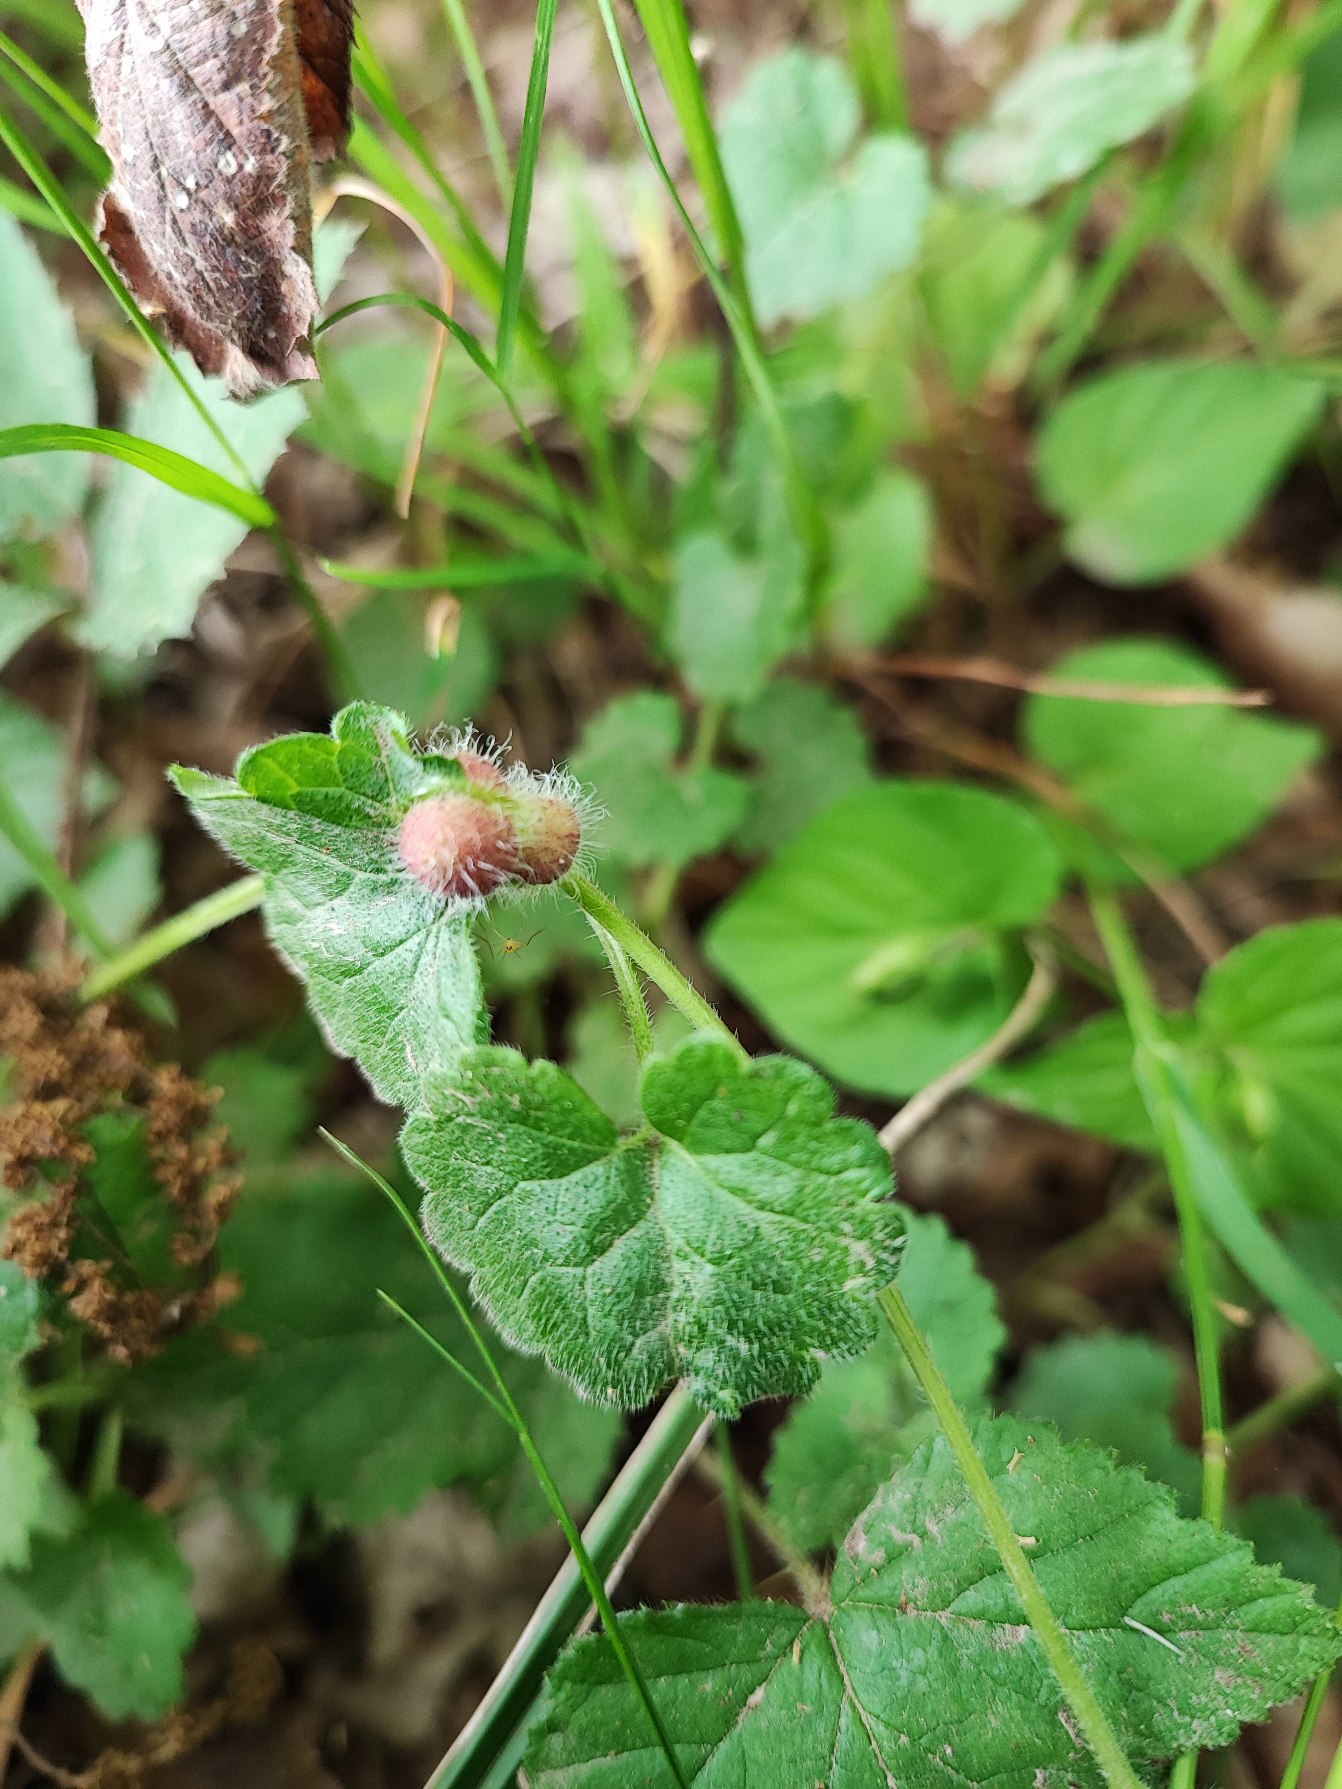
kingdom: Animalia
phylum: Arthropoda
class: Insecta
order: Hymenoptera
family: Cynipidae
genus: Liposthenes
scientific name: Liposthenes glechomae
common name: Korsknapgalhveps
